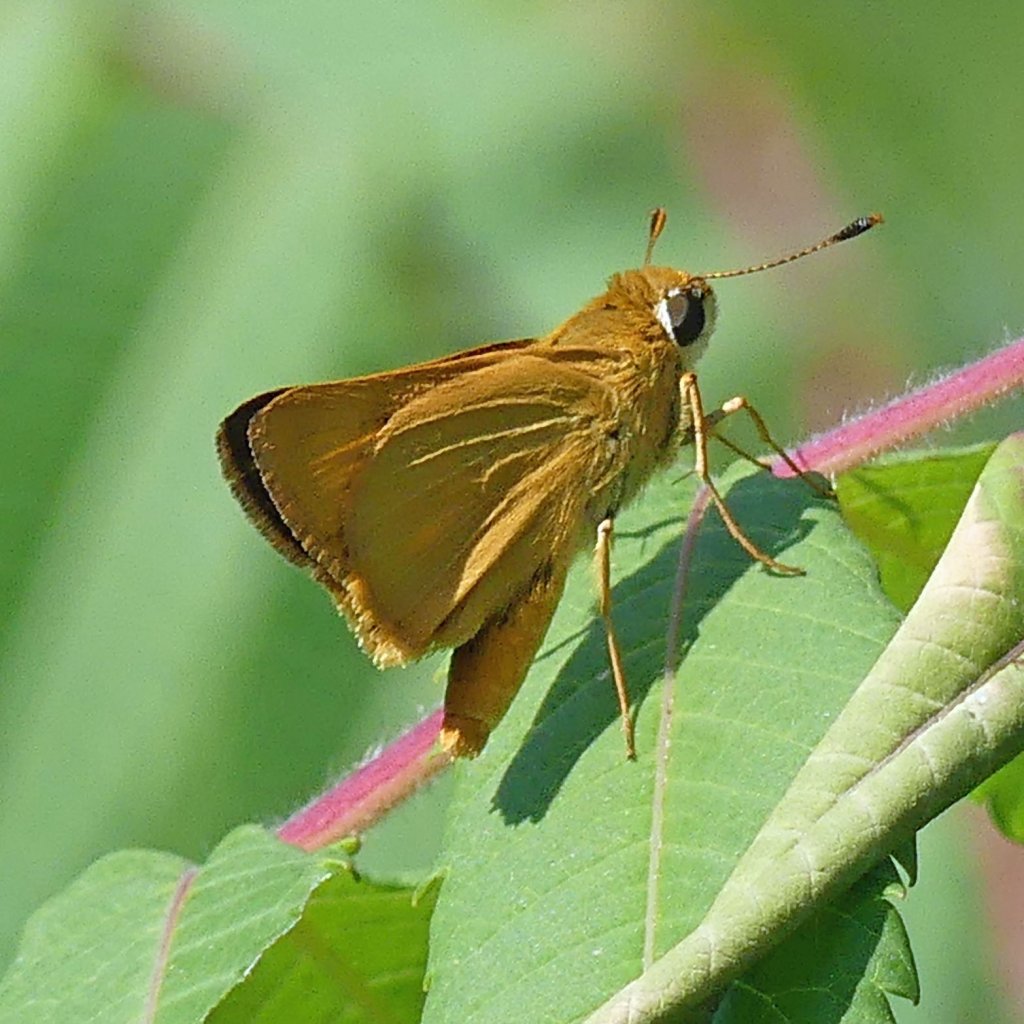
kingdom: Animalia
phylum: Arthropoda
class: Insecta
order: Lepidoptera
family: Hesperiidae
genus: Atrytone
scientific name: Atrytone delaware
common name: Delaware Skipper
